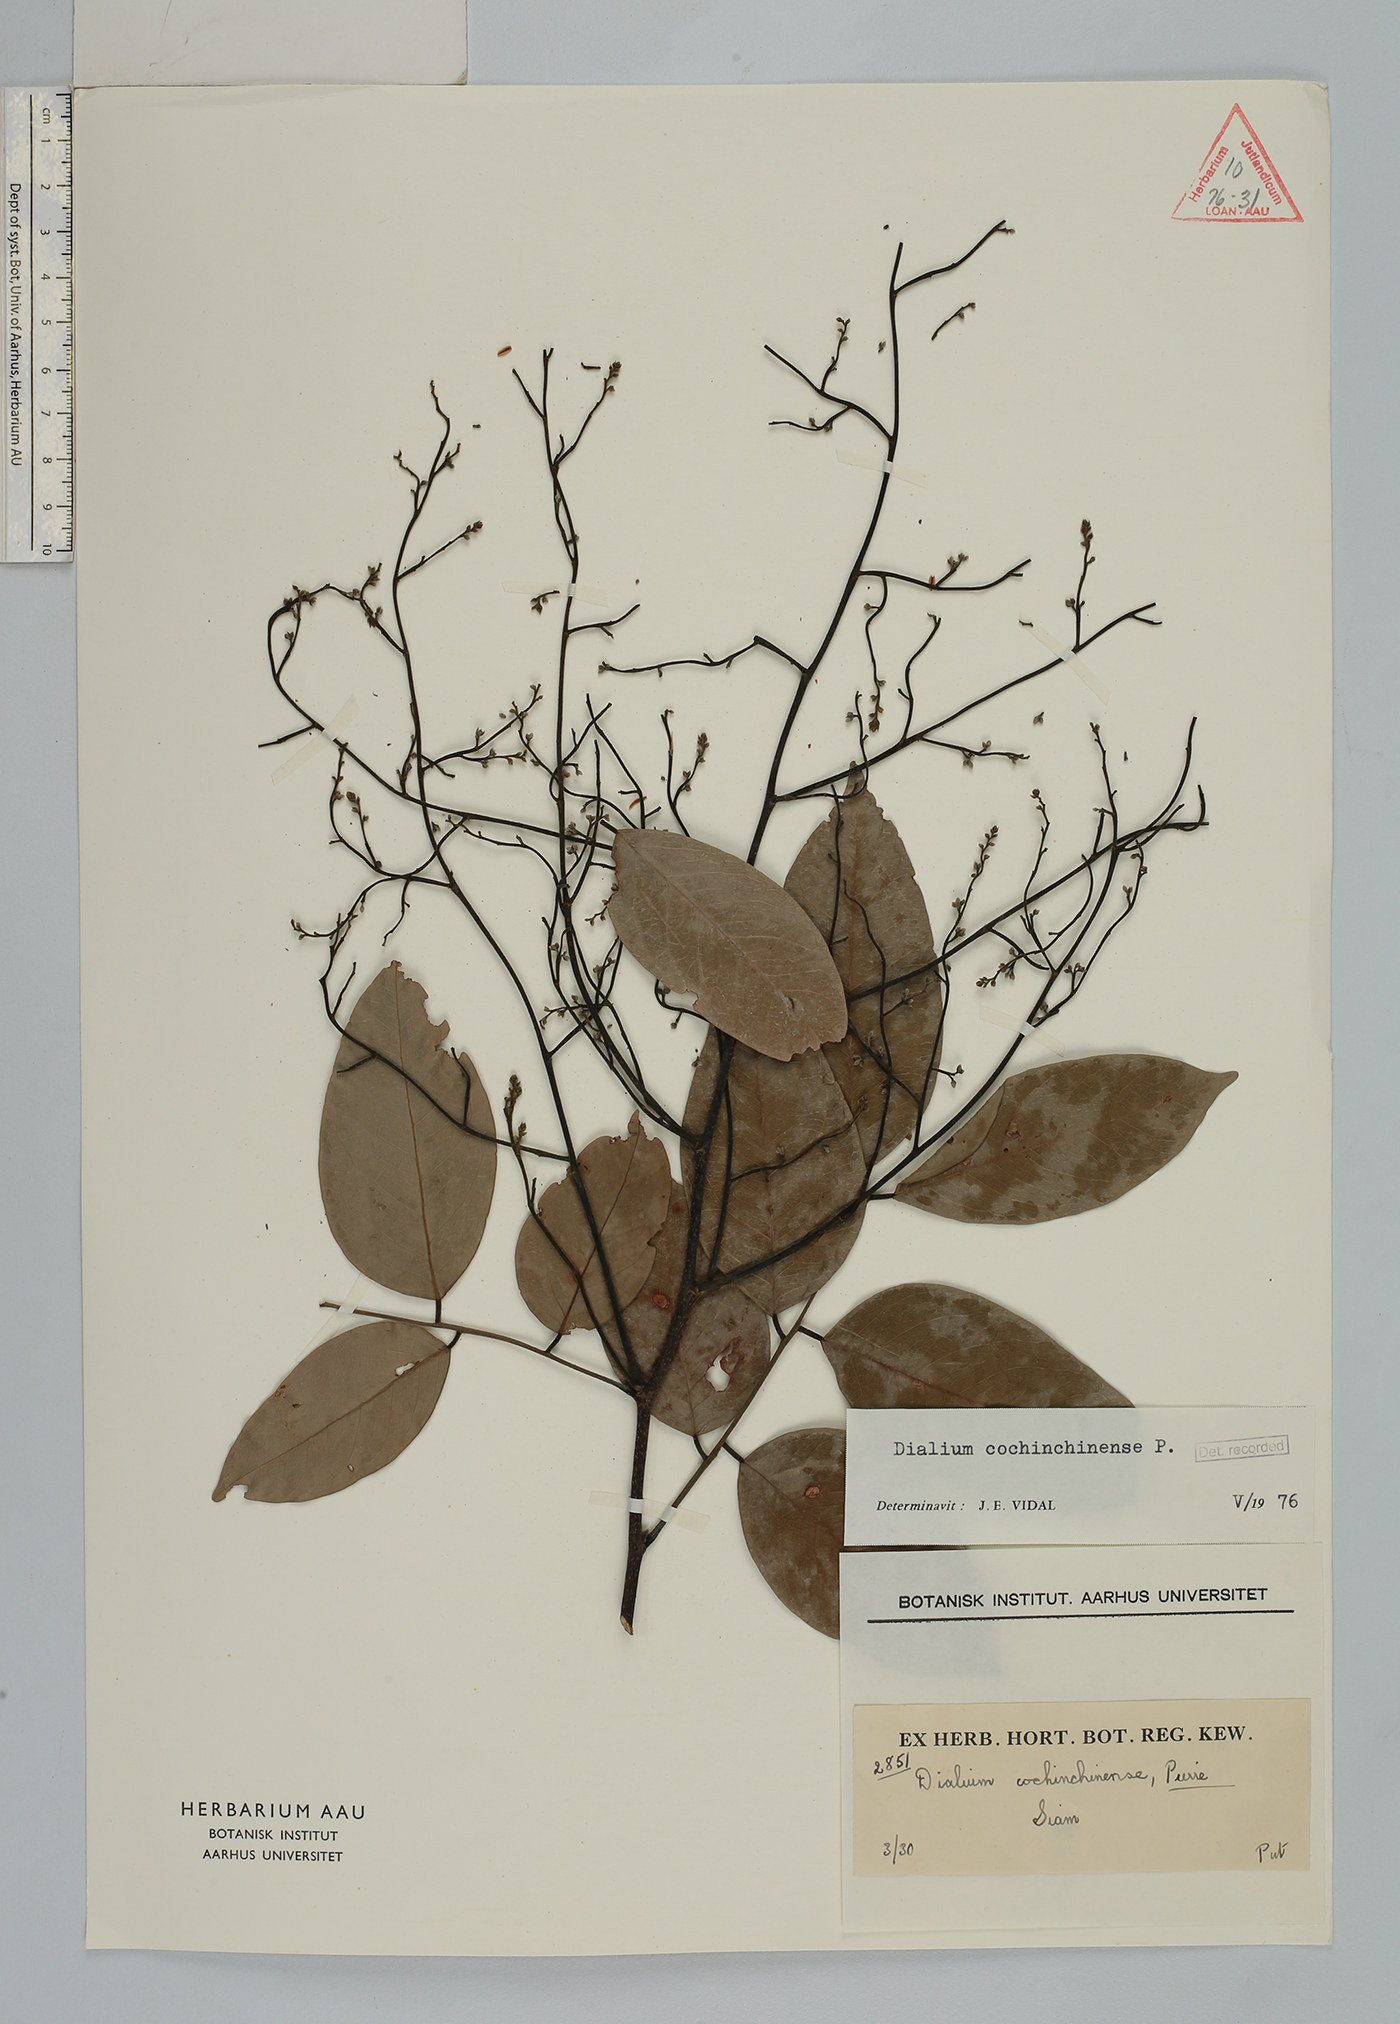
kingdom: Plantae
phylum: Tracheophyta
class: Magnoliopsida
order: Fabales
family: Fabaceae
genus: Dialium
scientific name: Dialium cochinchinense
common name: Velvet tamarind
